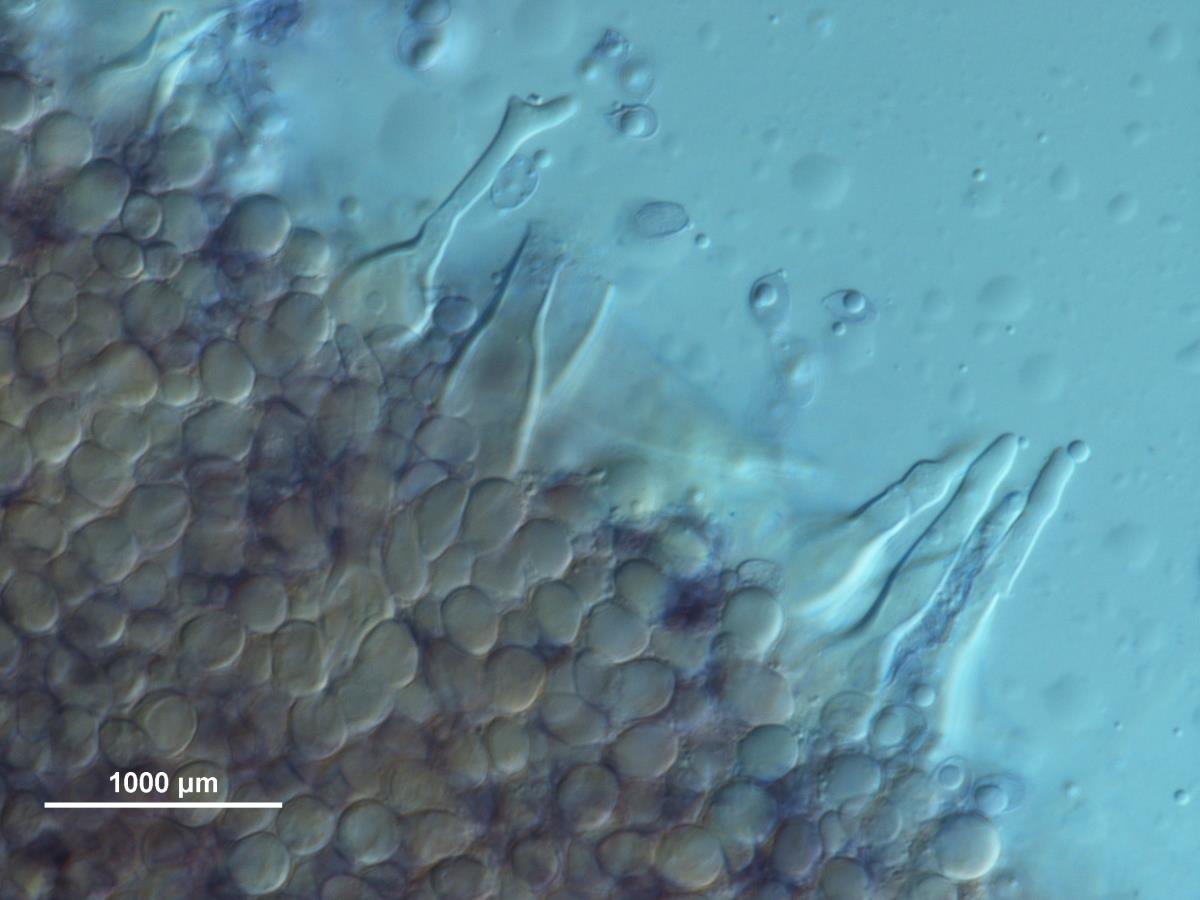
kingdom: Fungi
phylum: Basidiomycota
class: Agaricomycetes
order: Agaricales
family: Mycenaceae
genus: Mycena
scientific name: Mycena atroavellanea
